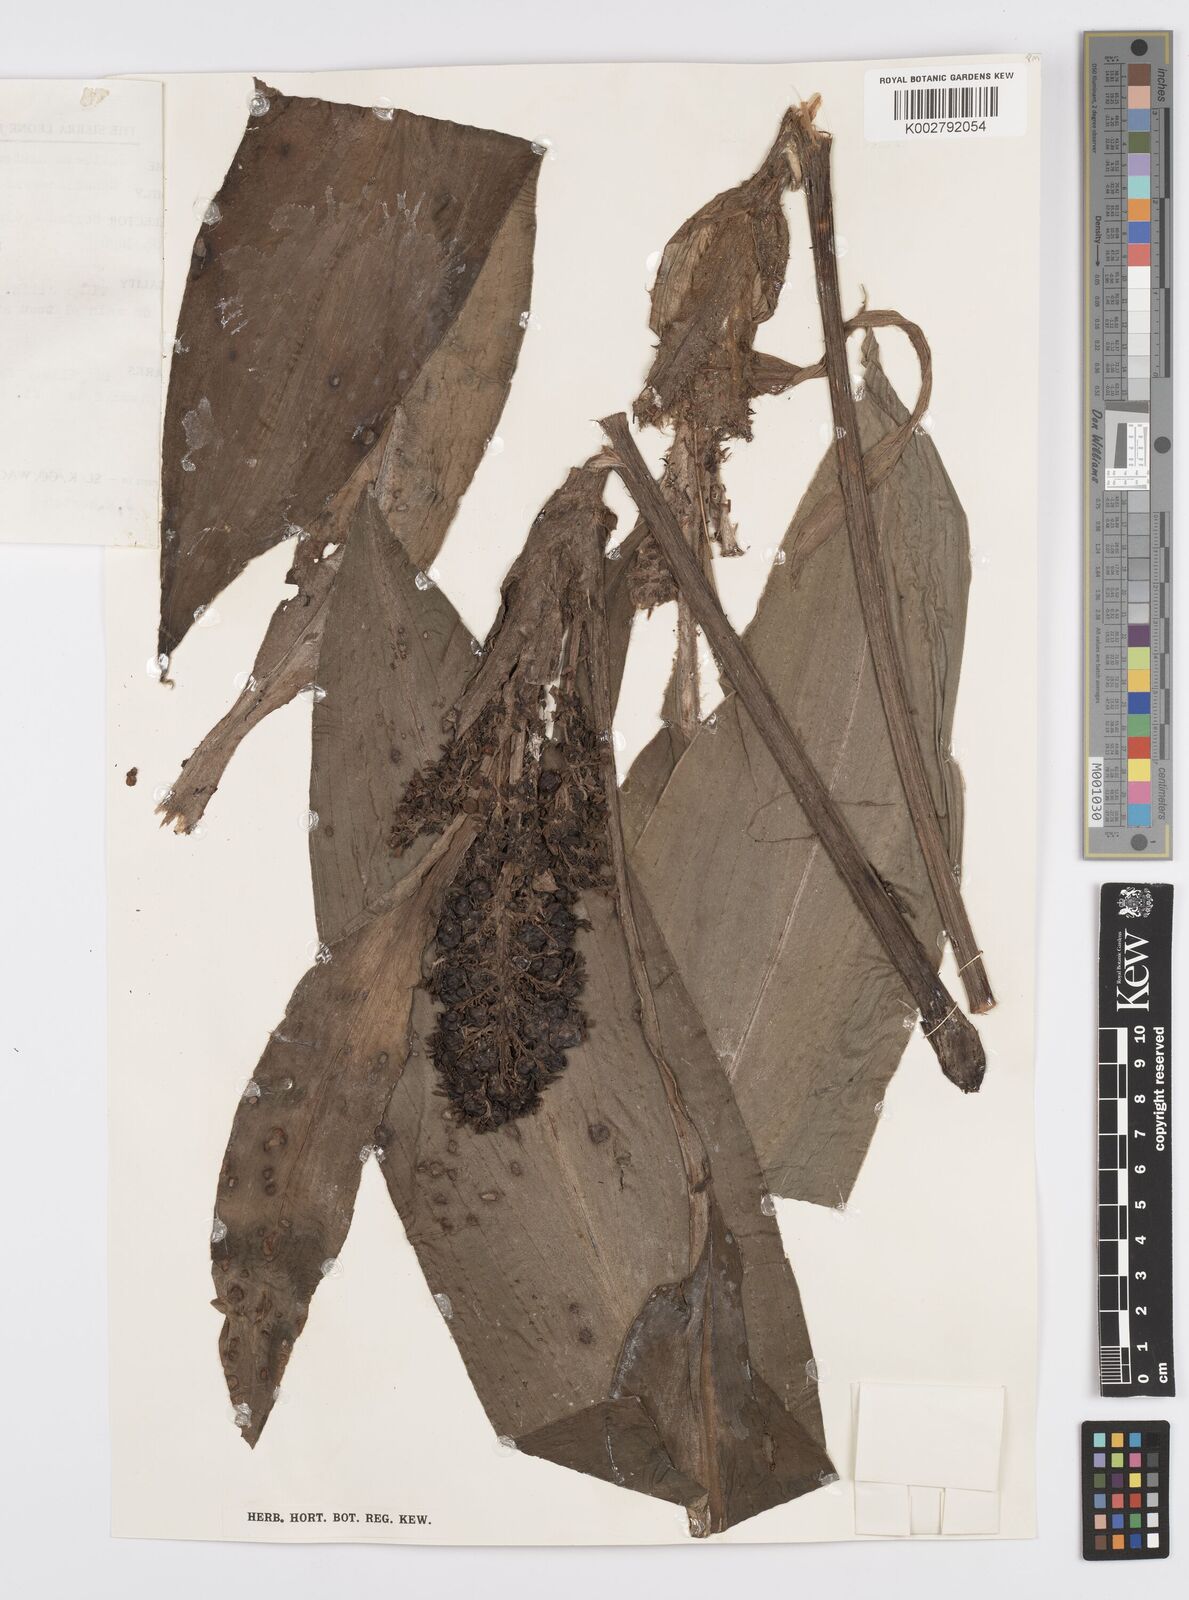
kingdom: Plantae
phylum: Tracheophyta
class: Liliopsida
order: Commelinales
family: Commelinaceae
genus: Palisota
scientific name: Palisota barteri
